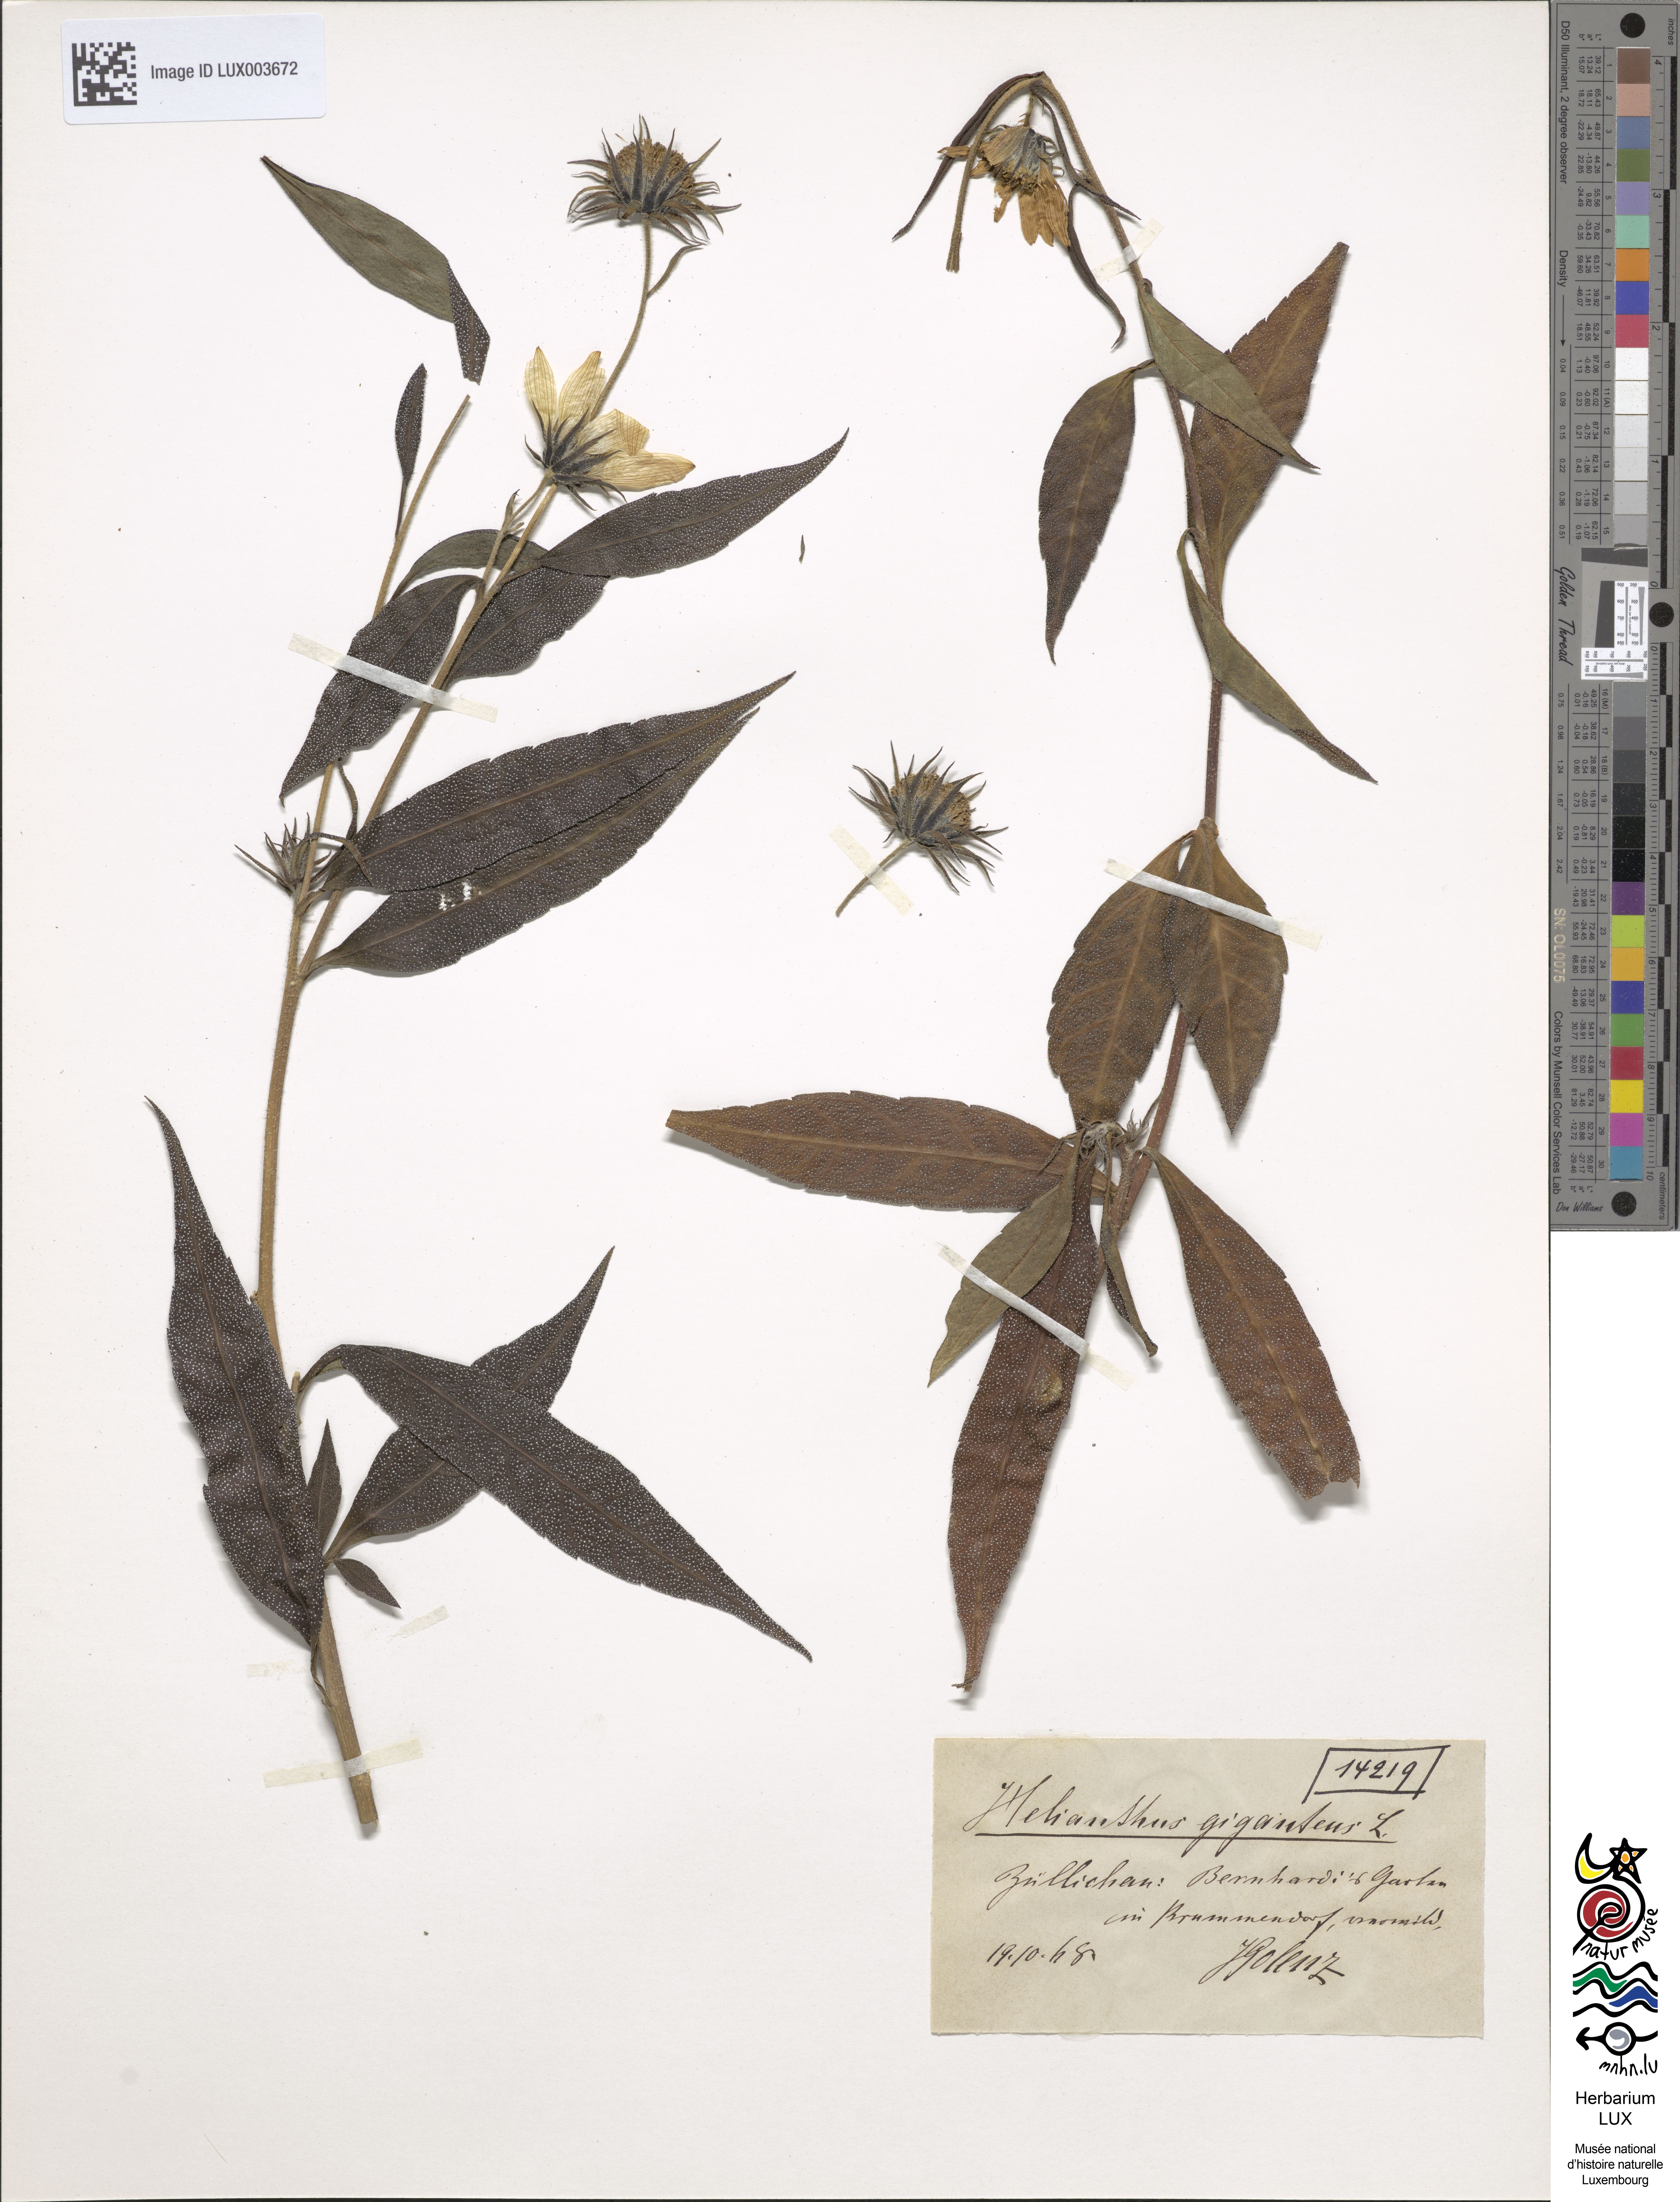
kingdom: Plantae
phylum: Tracheophyta
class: Magnoliopsida
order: Asterales
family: Asteraceae
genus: Helianthus
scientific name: Helianthus annuus
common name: Sunflower
